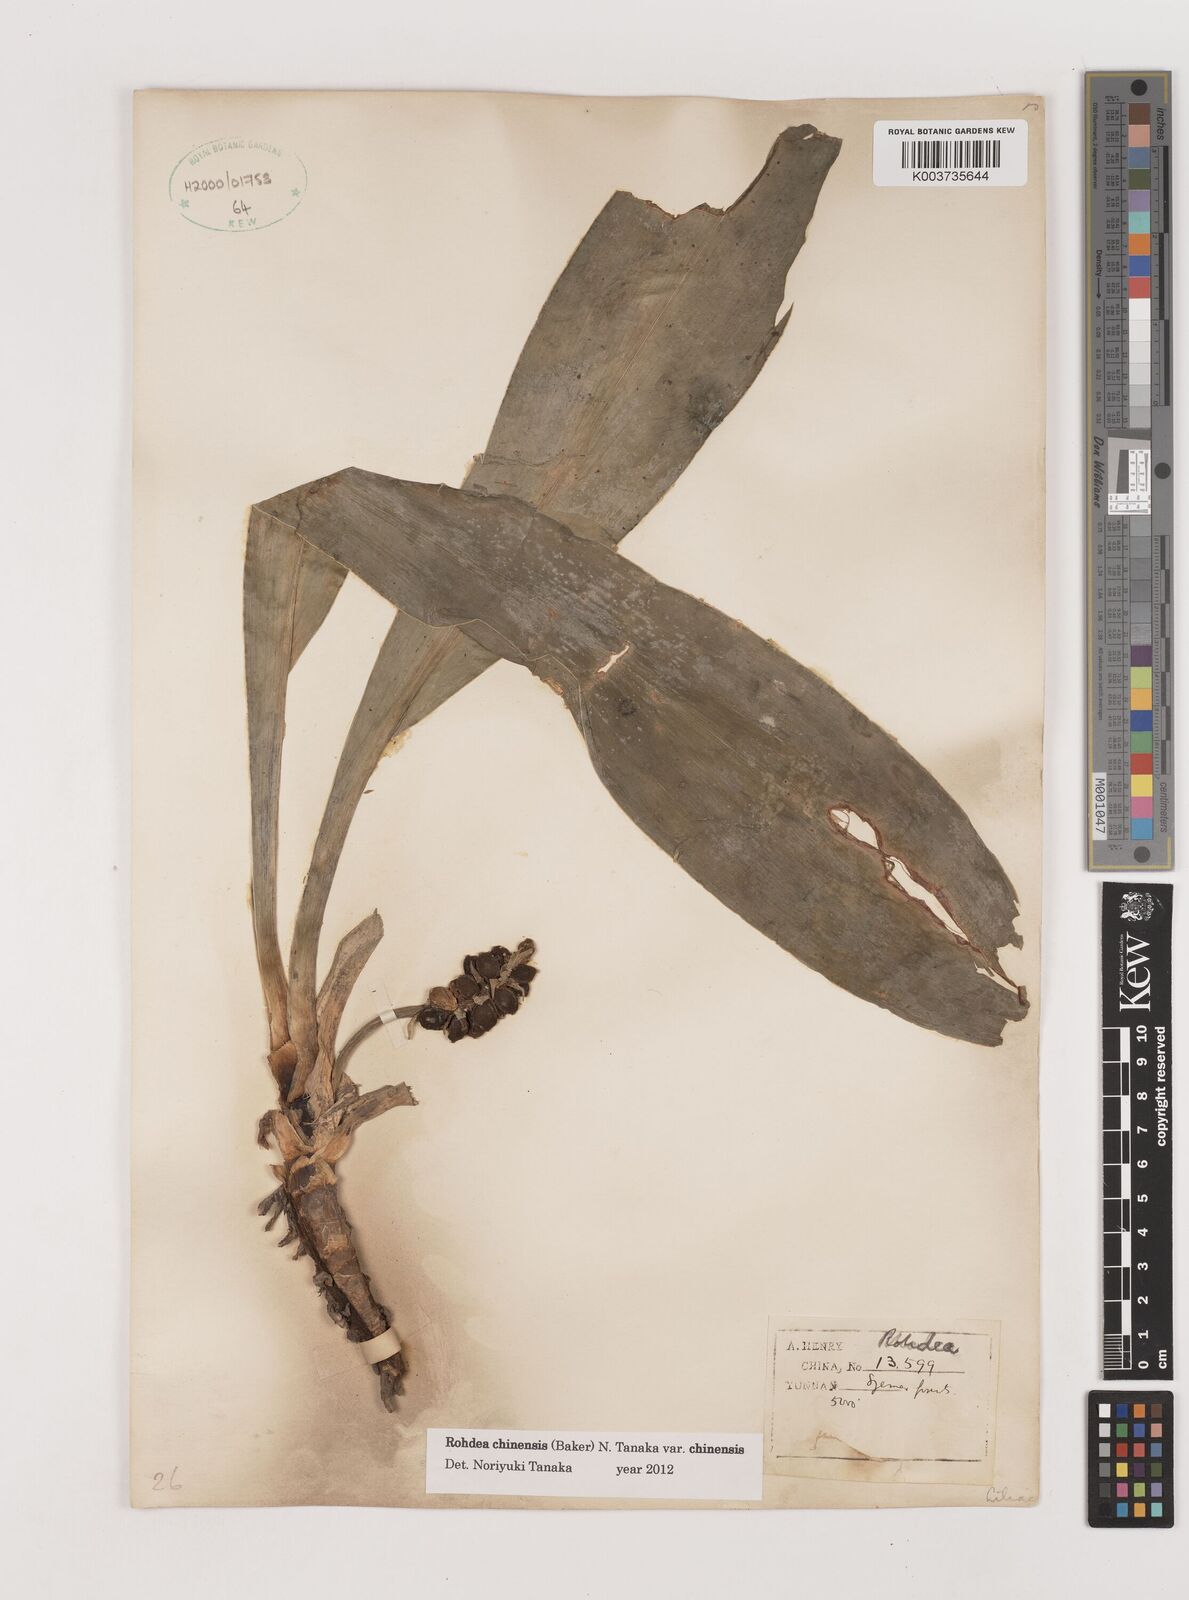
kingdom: Plantae
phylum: Tracheophyta
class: Liliopsida
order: Asparagales
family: Asparagaceae
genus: Rohdea
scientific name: Rohdea fargesii
